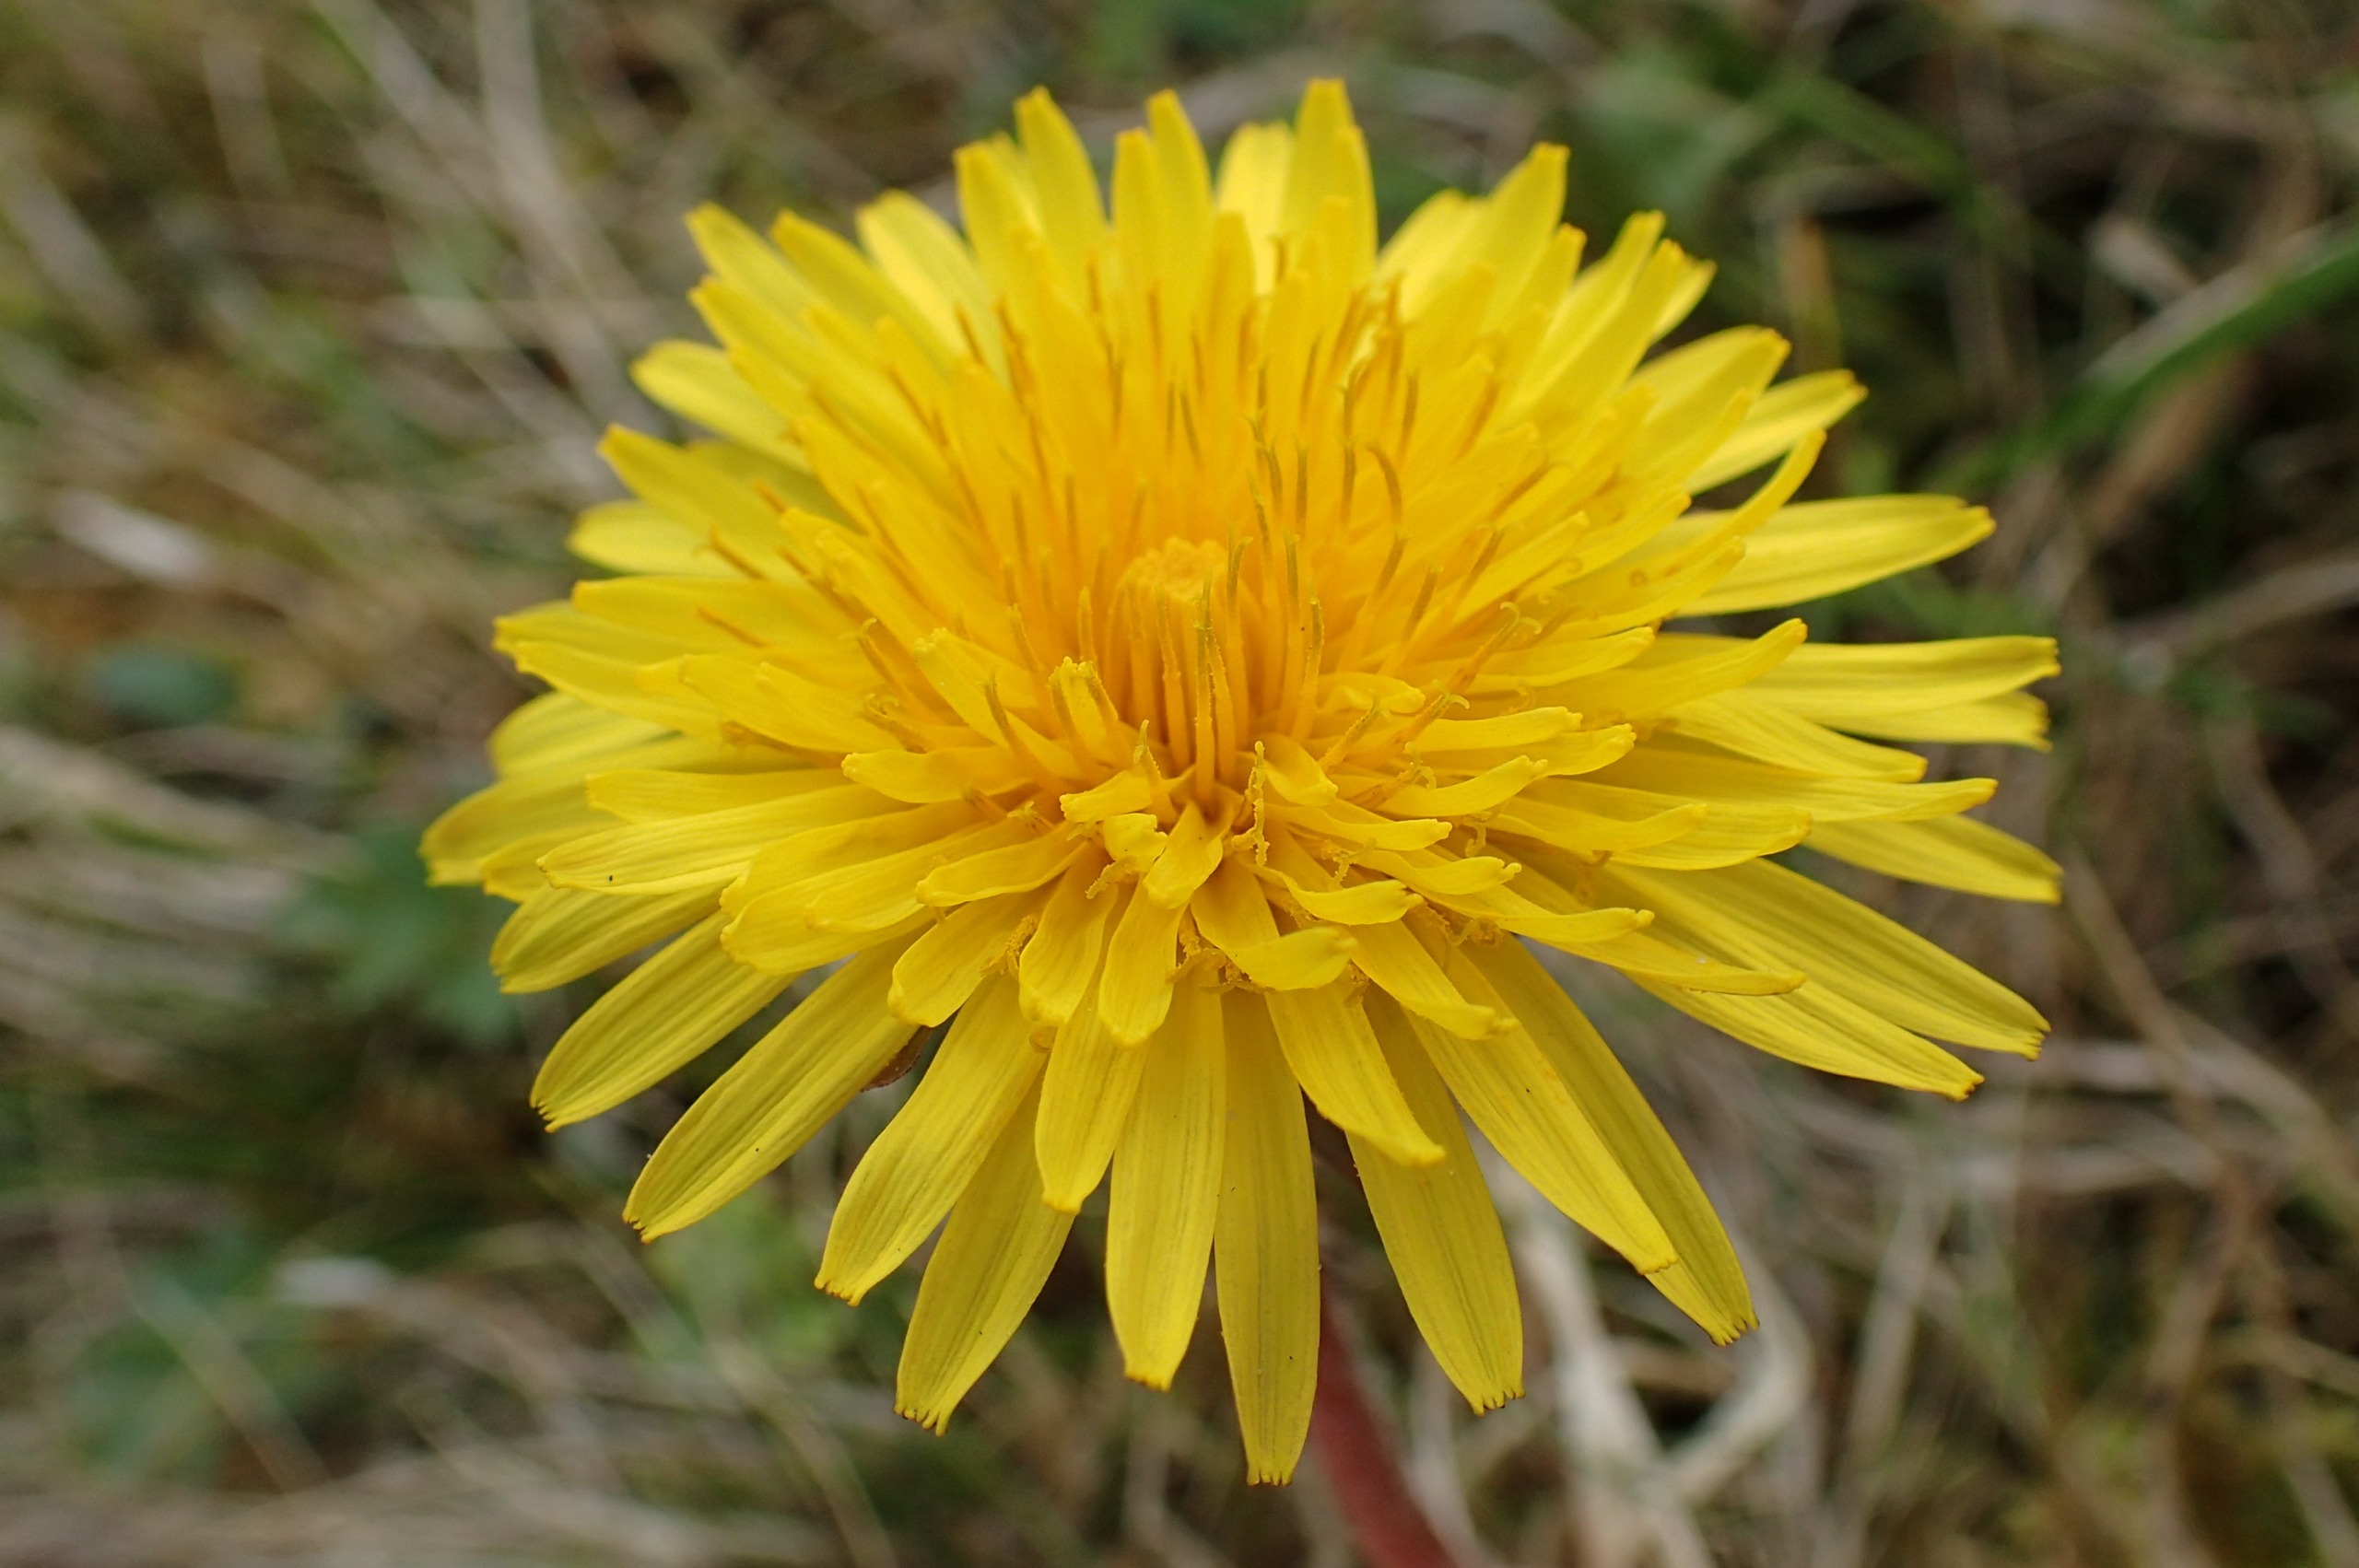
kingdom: Plantae
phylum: Tracheophyta
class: Magnoliopsida
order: Asterales
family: Asteraceae
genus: Taraxacum
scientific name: Taraxacum hamatum
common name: Almindelig krogmælkebøtte
